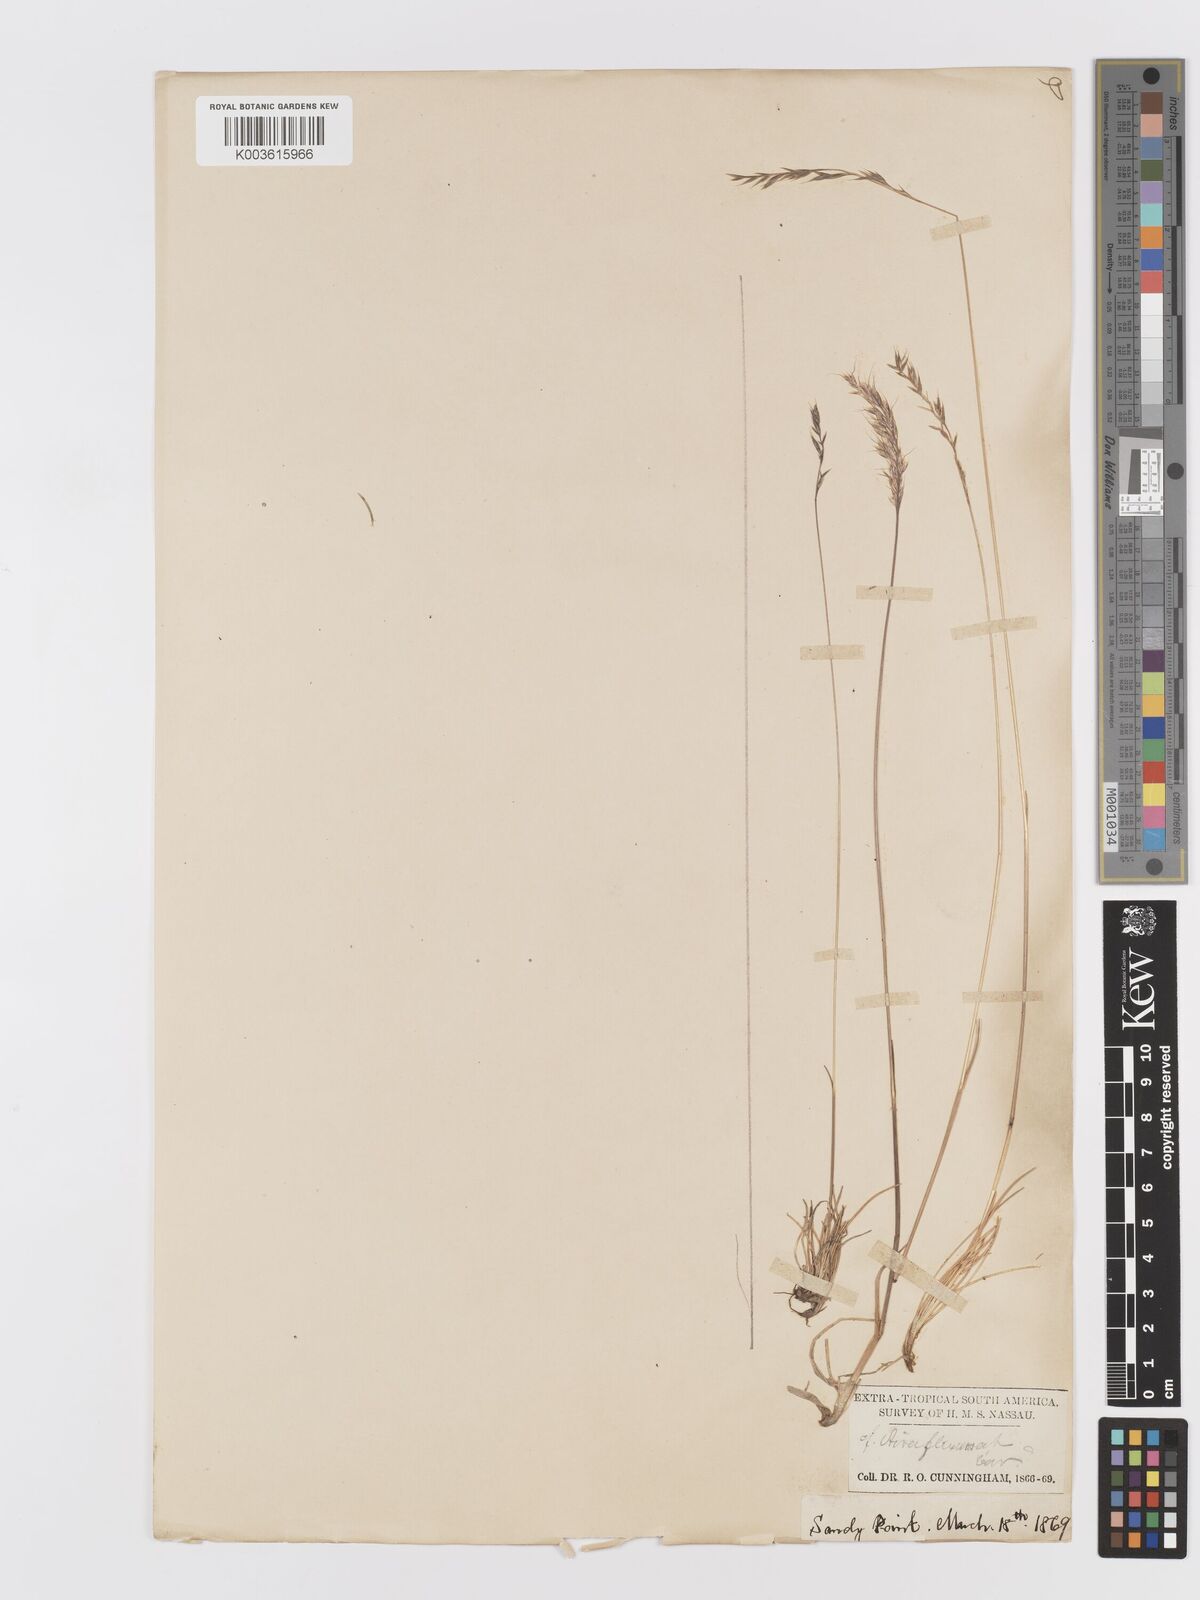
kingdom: Plantae
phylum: Tracheophyta
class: Liliopsida
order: Poales
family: Poaceae
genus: Trisetum
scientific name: Trisetum
